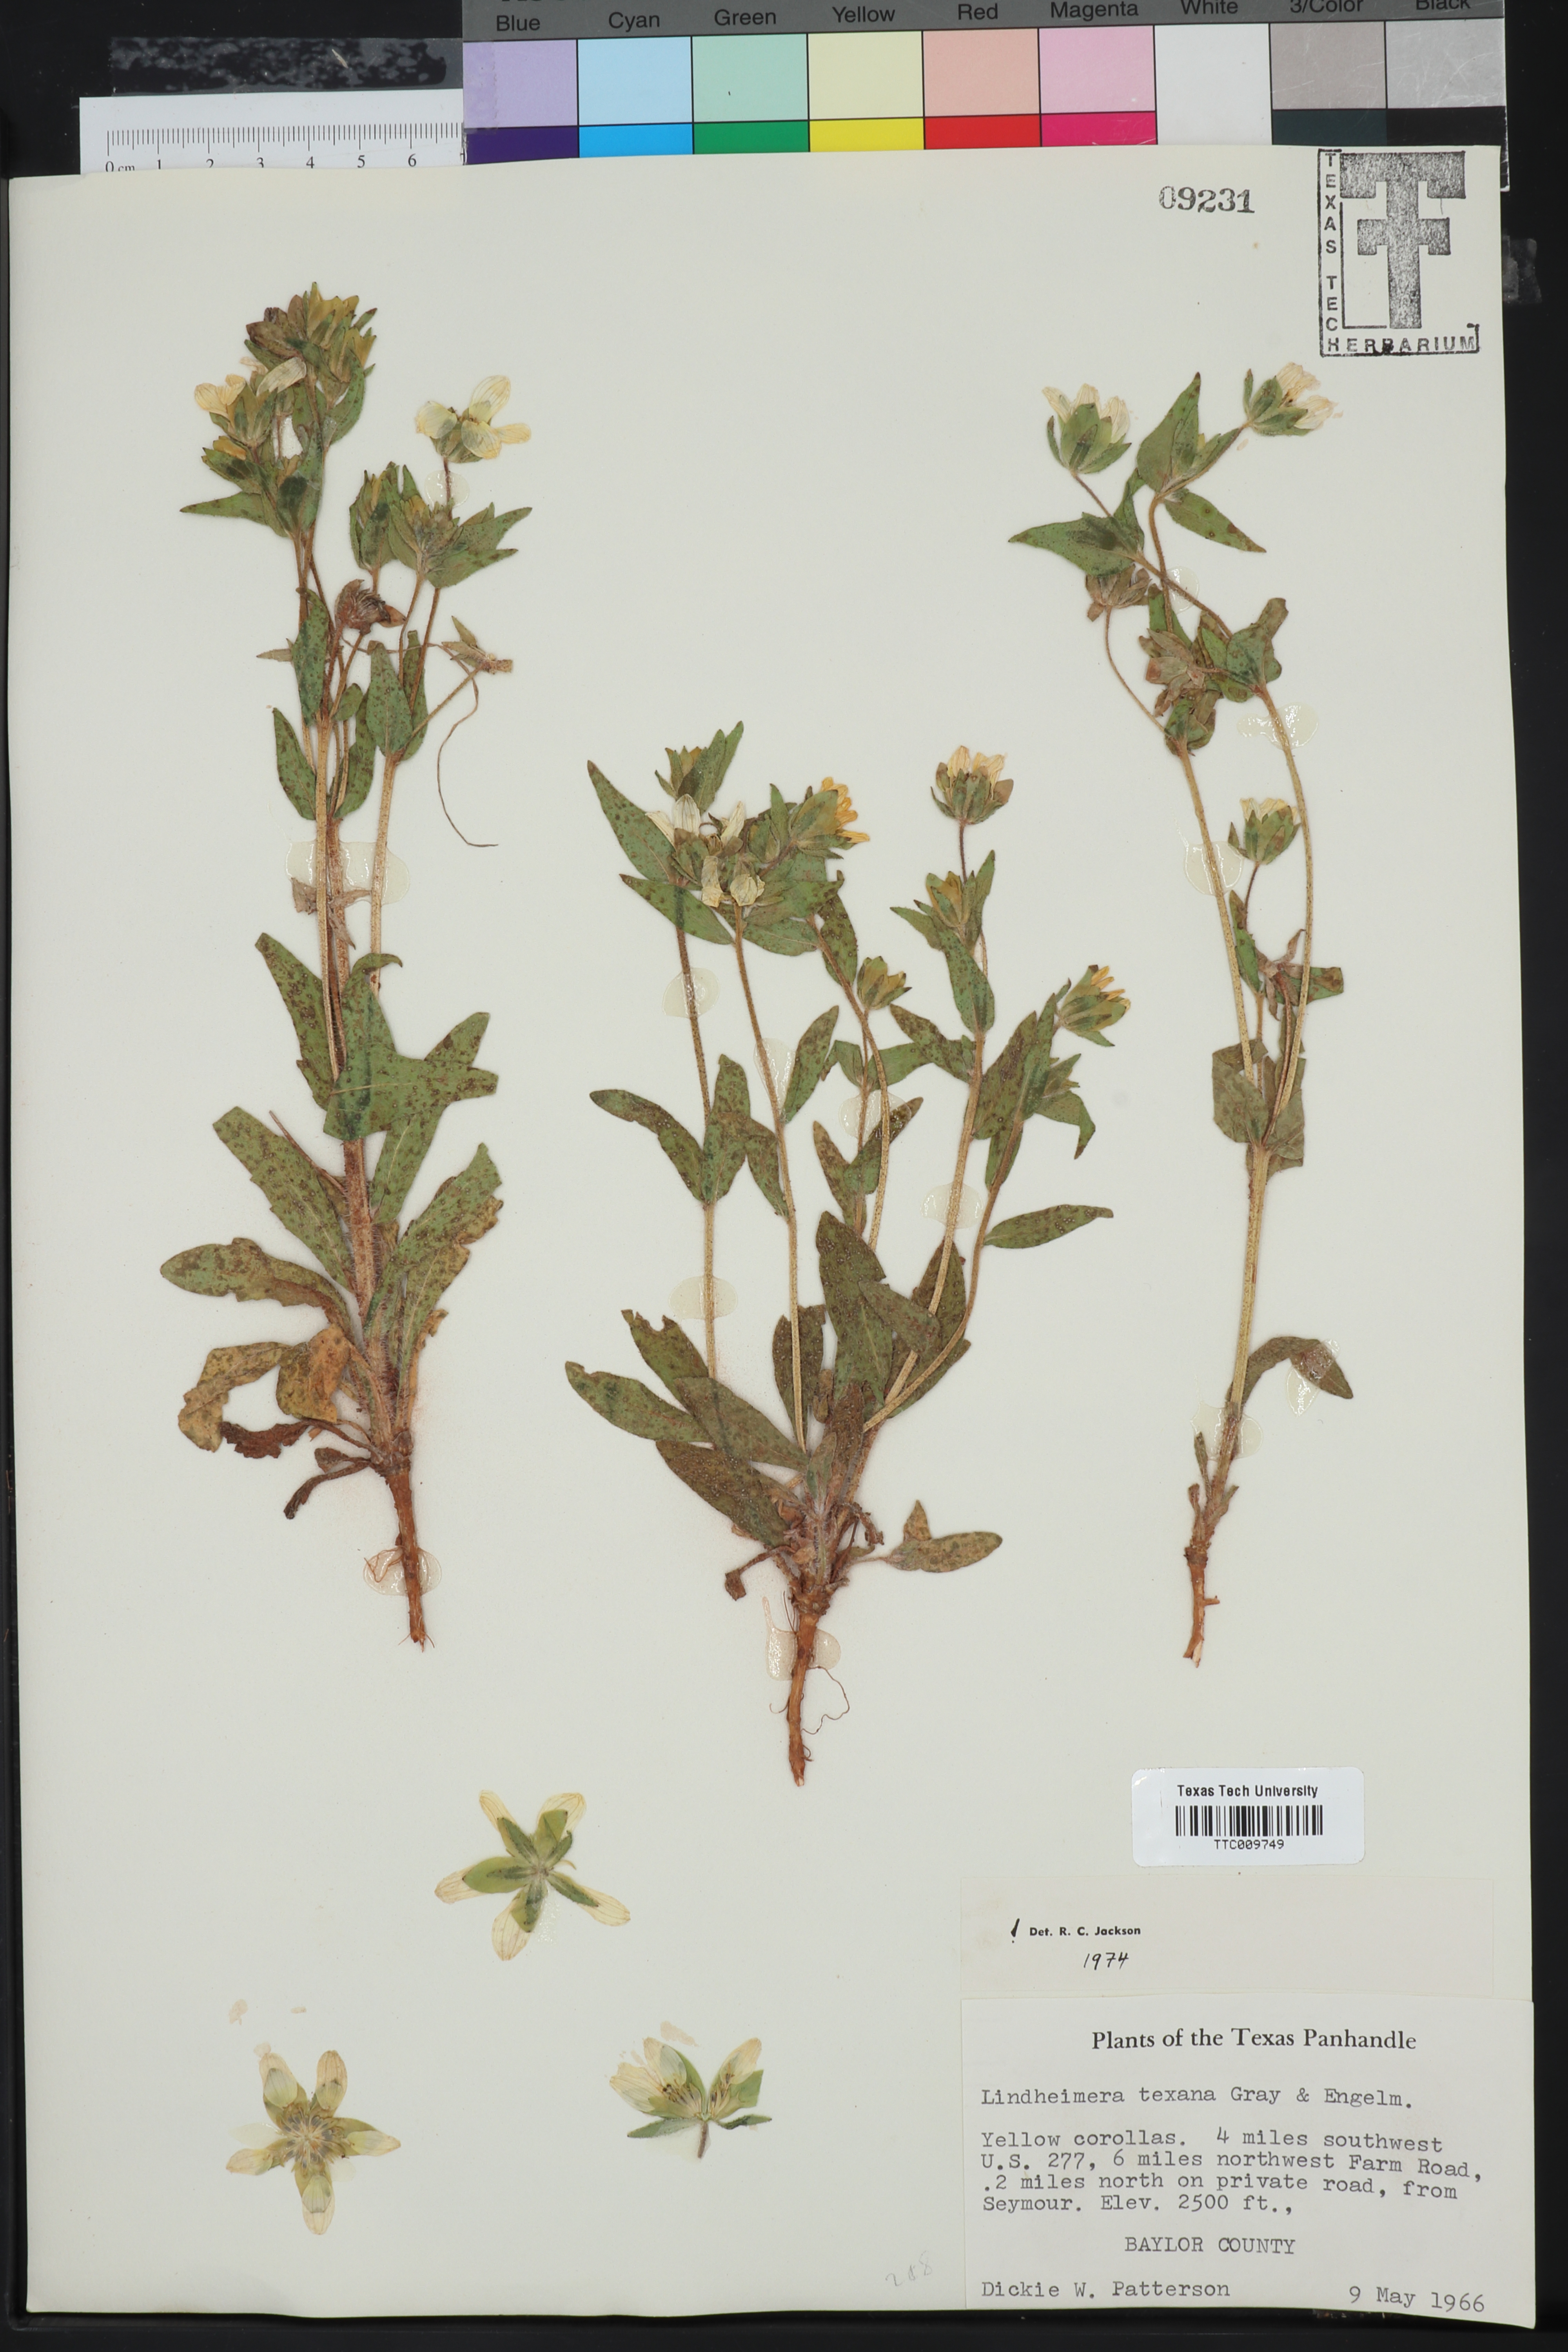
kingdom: Plantae
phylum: Tracheophyta
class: Magnoliopsida
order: Asterales
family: Asteraceae
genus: Lindheimera
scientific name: Lindheimera texana
